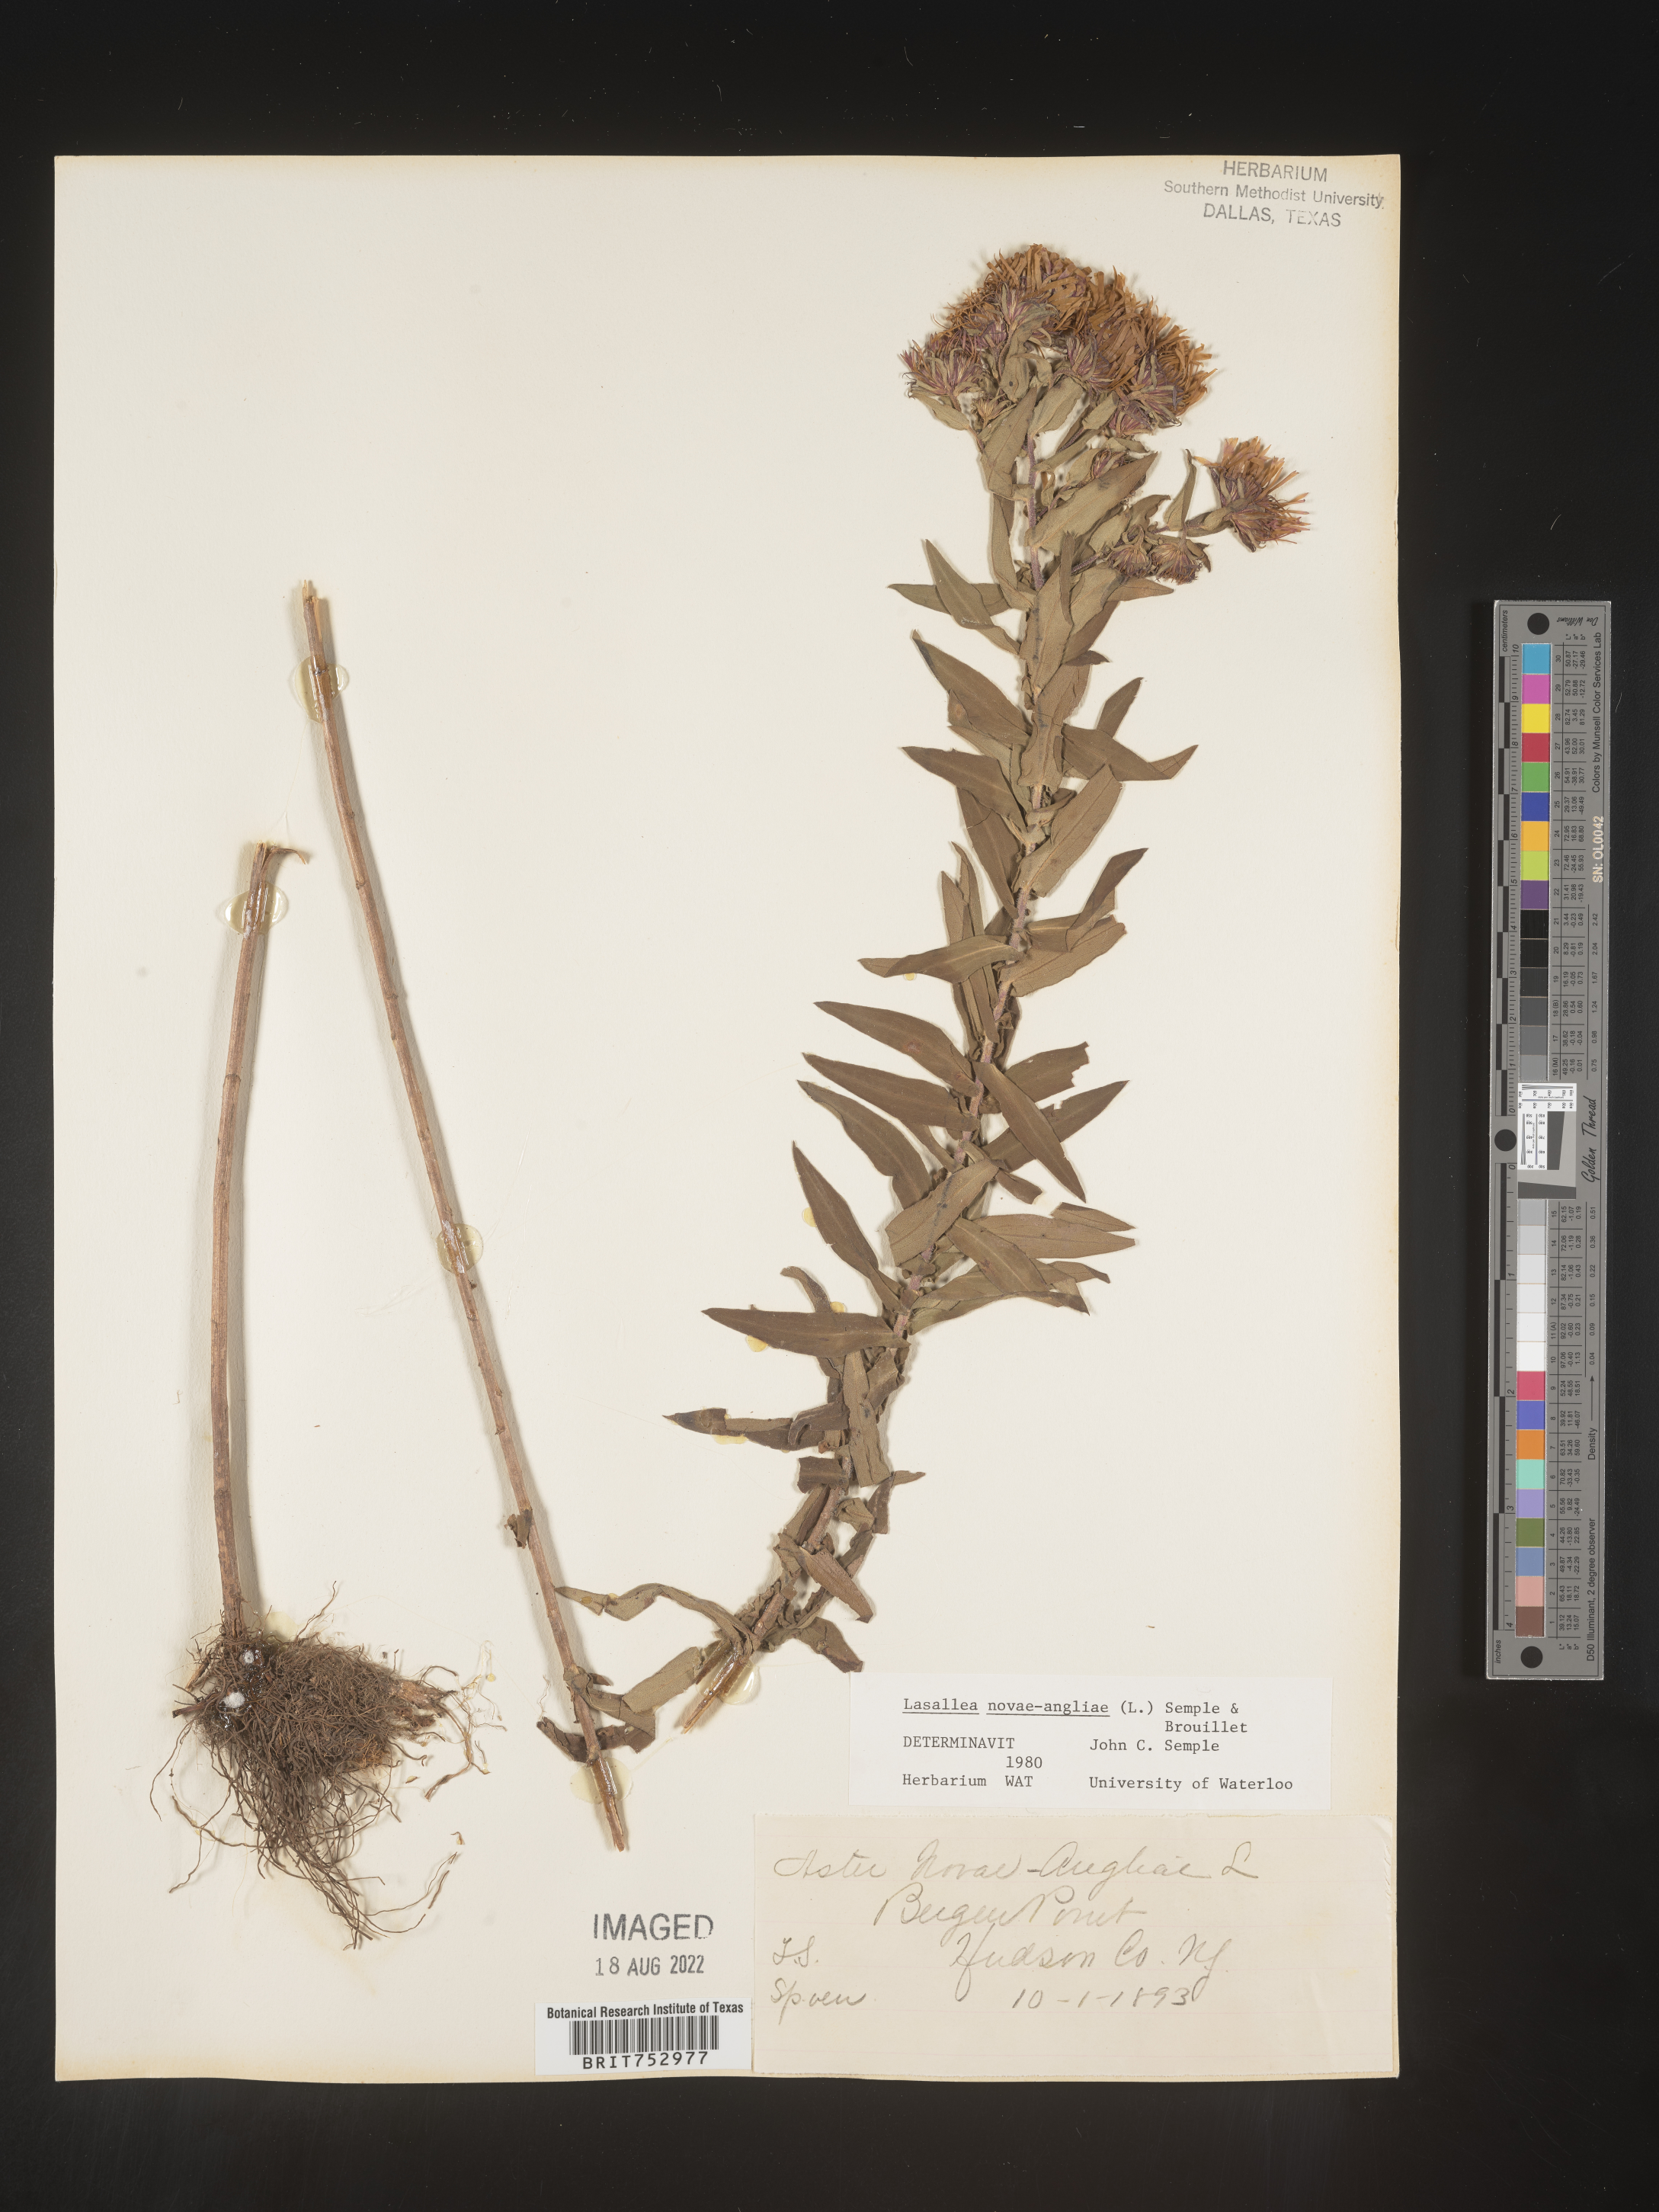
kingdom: Plantae
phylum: Tracheophyta
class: Magnoliopsida
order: Asterales
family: Asteraceae
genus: Symphyotrichum
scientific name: Symphyotrichum novae-angliae
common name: Michaelmas daisy
